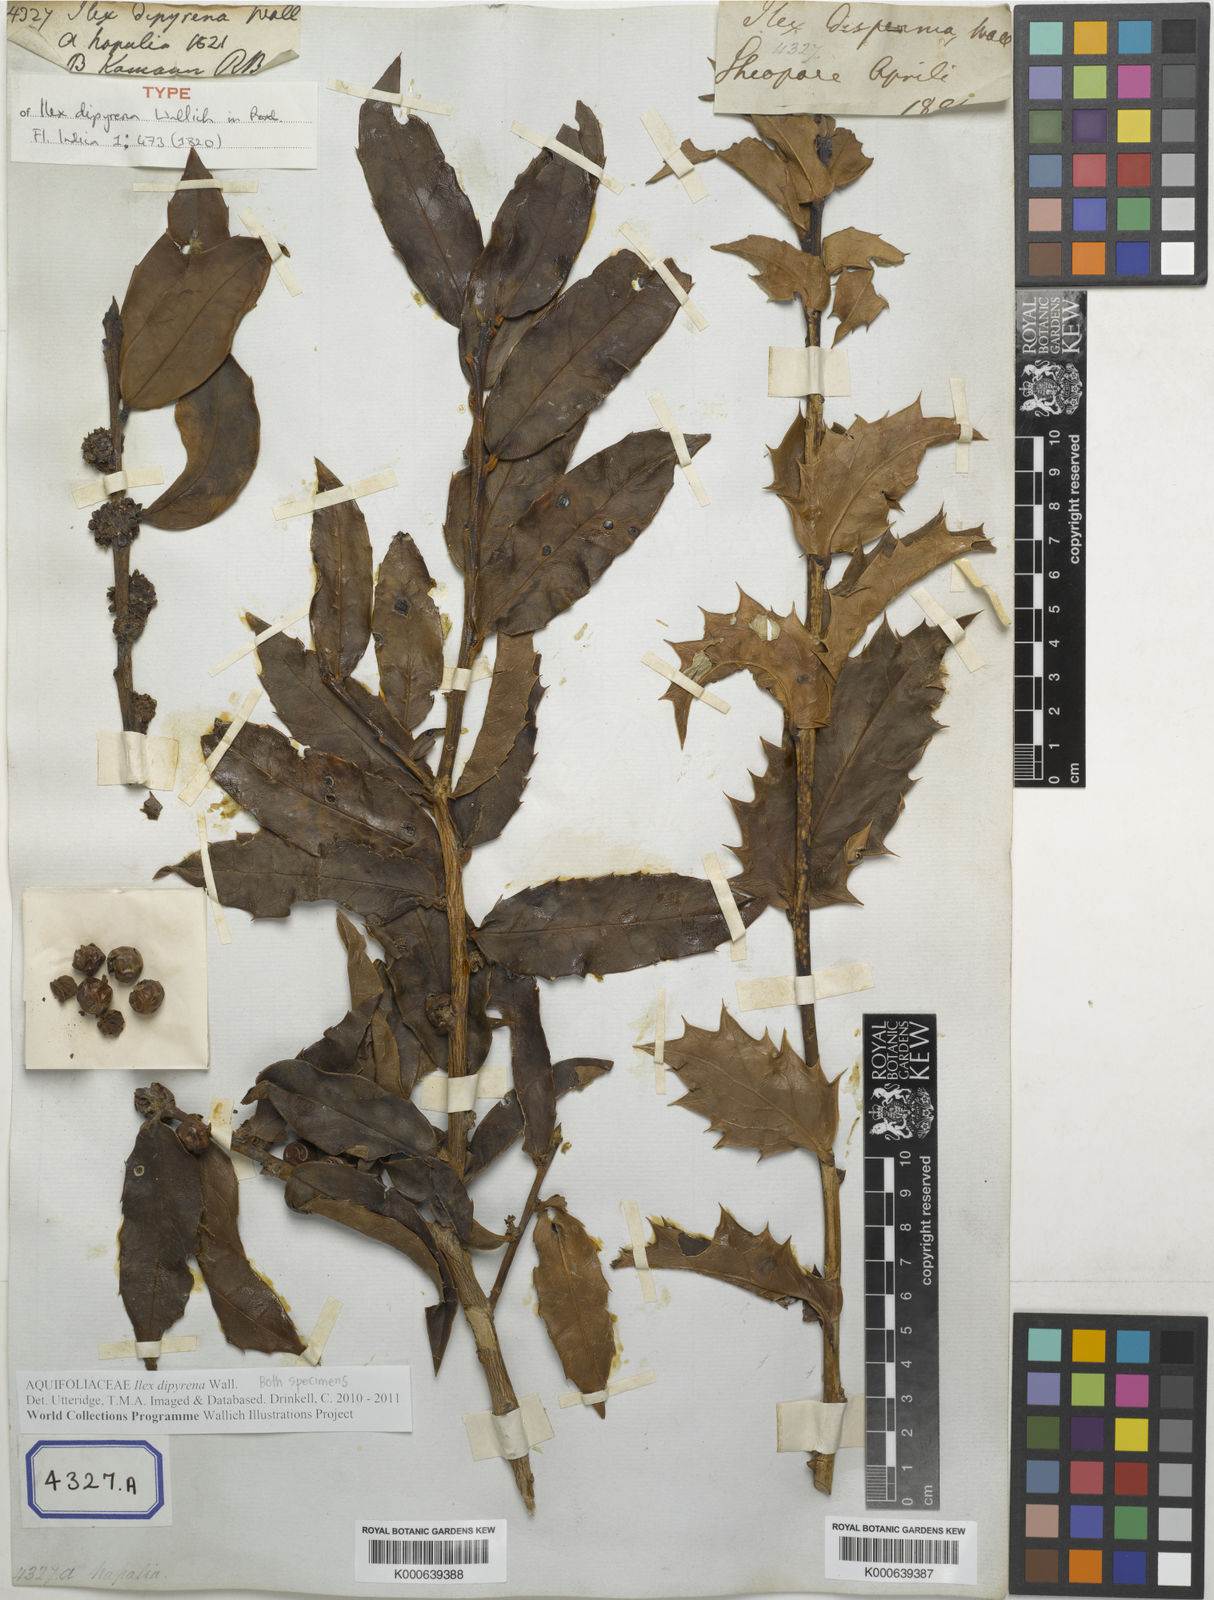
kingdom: Plantae
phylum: Tracheophyta
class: Magnoliopsida
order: Aquifoliales
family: Aquifoliaceae
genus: Ilex
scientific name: Ilex dipyrena
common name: Himalayan holly
